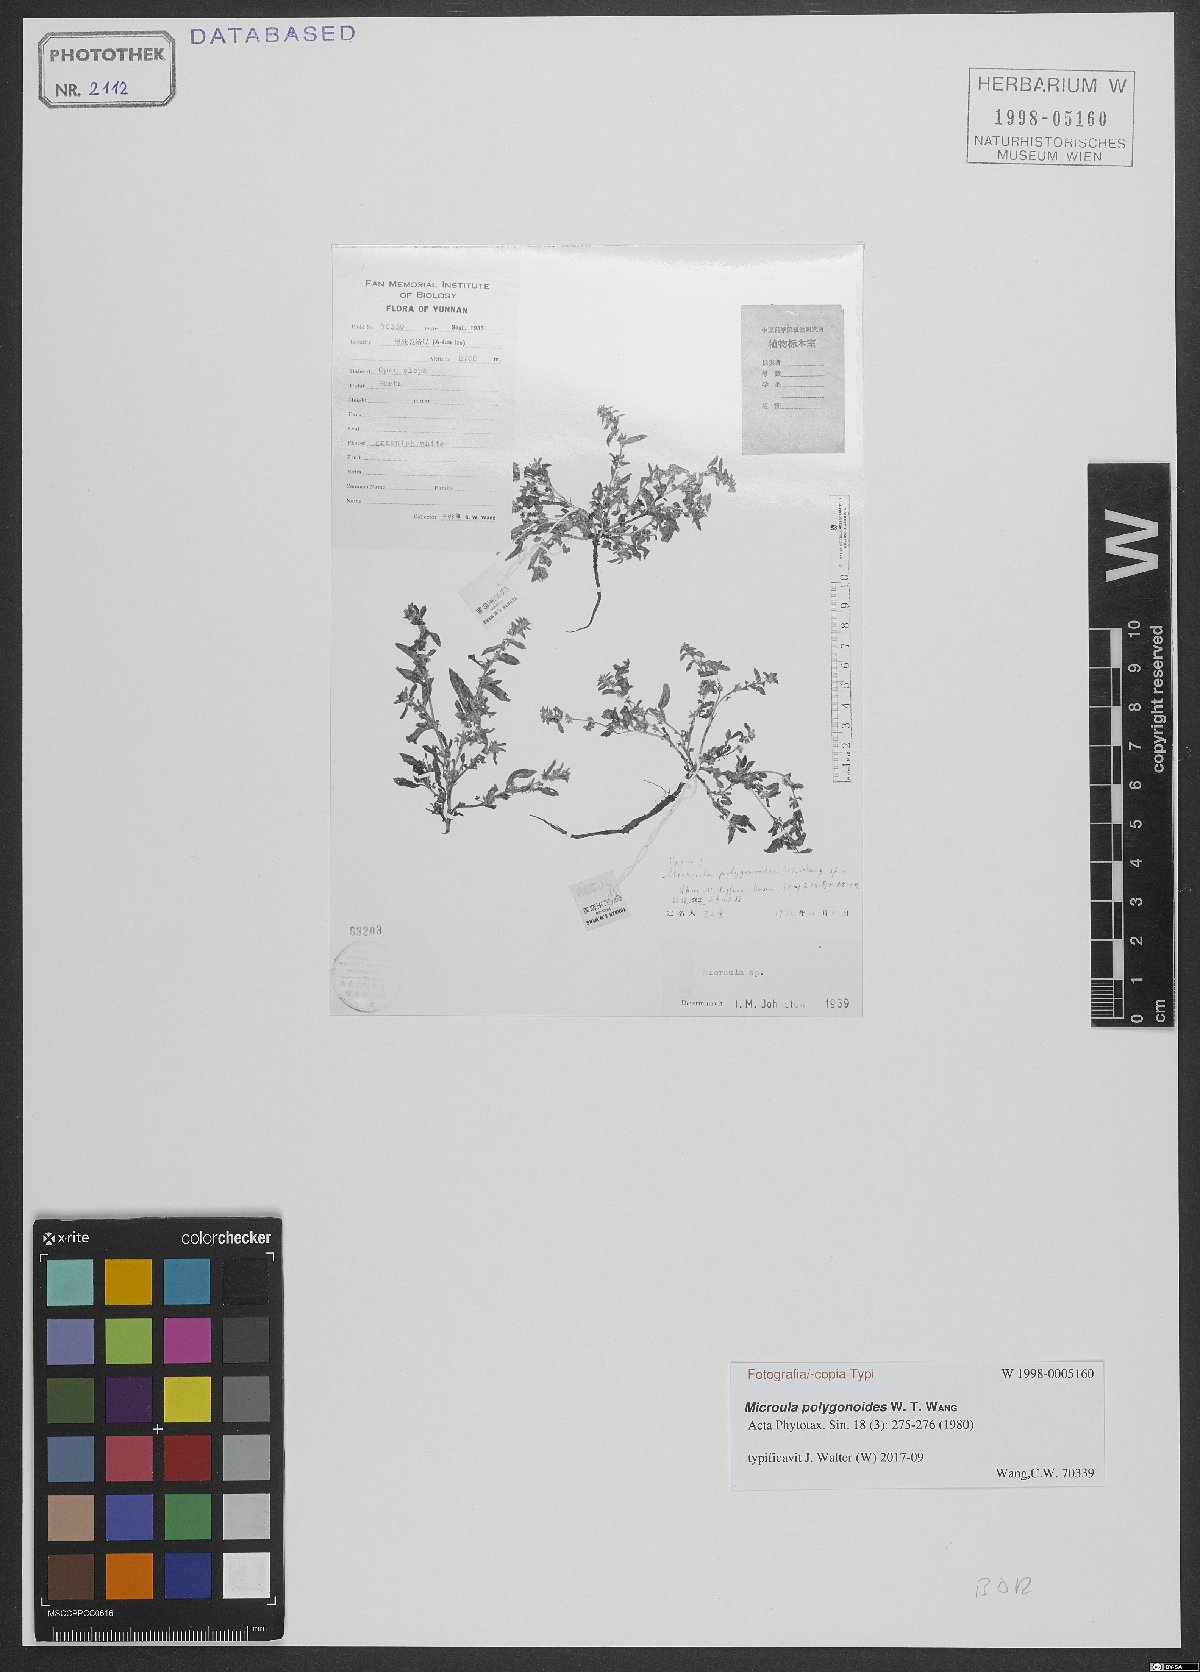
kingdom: Plantae
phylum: Tracheophyta
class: Magnoliopsida
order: Boraginales
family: Boraginaceae
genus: Microula
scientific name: Microula polygonoides
